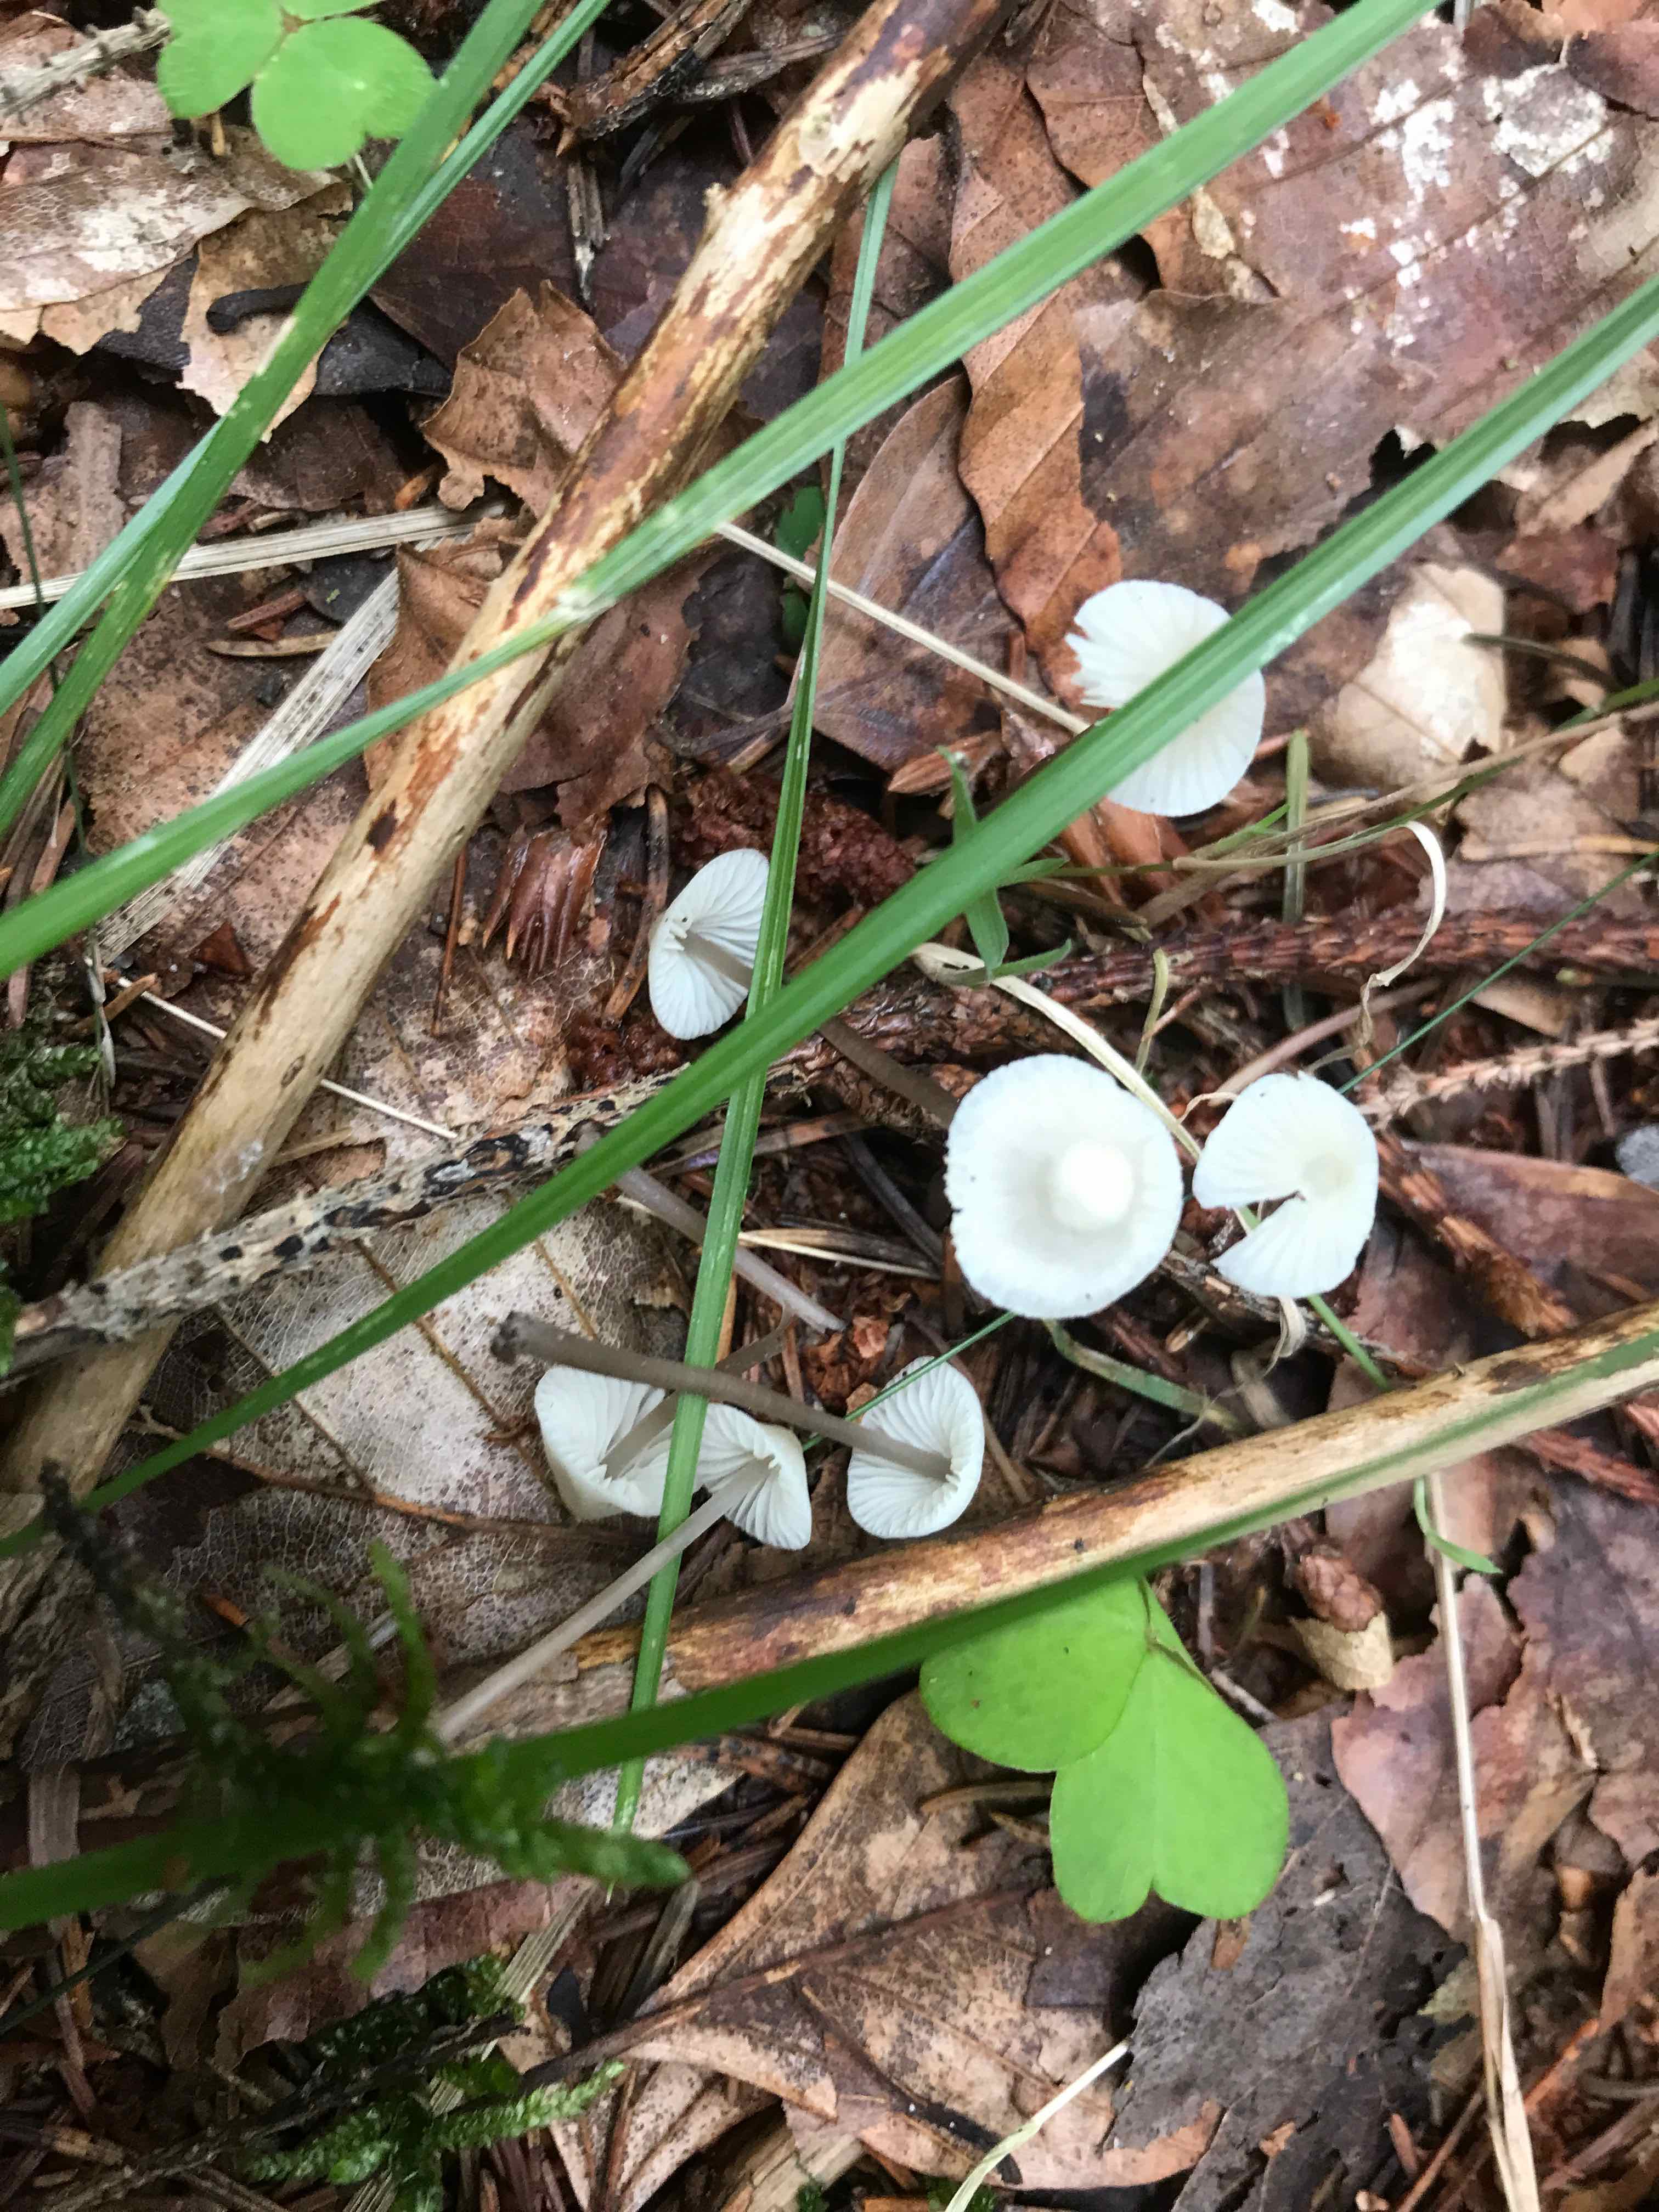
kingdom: Fungi
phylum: Basidiomycota
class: Agaricomycetes
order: Agaricales
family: Mycenaceae
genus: Mycena
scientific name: Mycena flavescens
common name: grågul huesvamp
